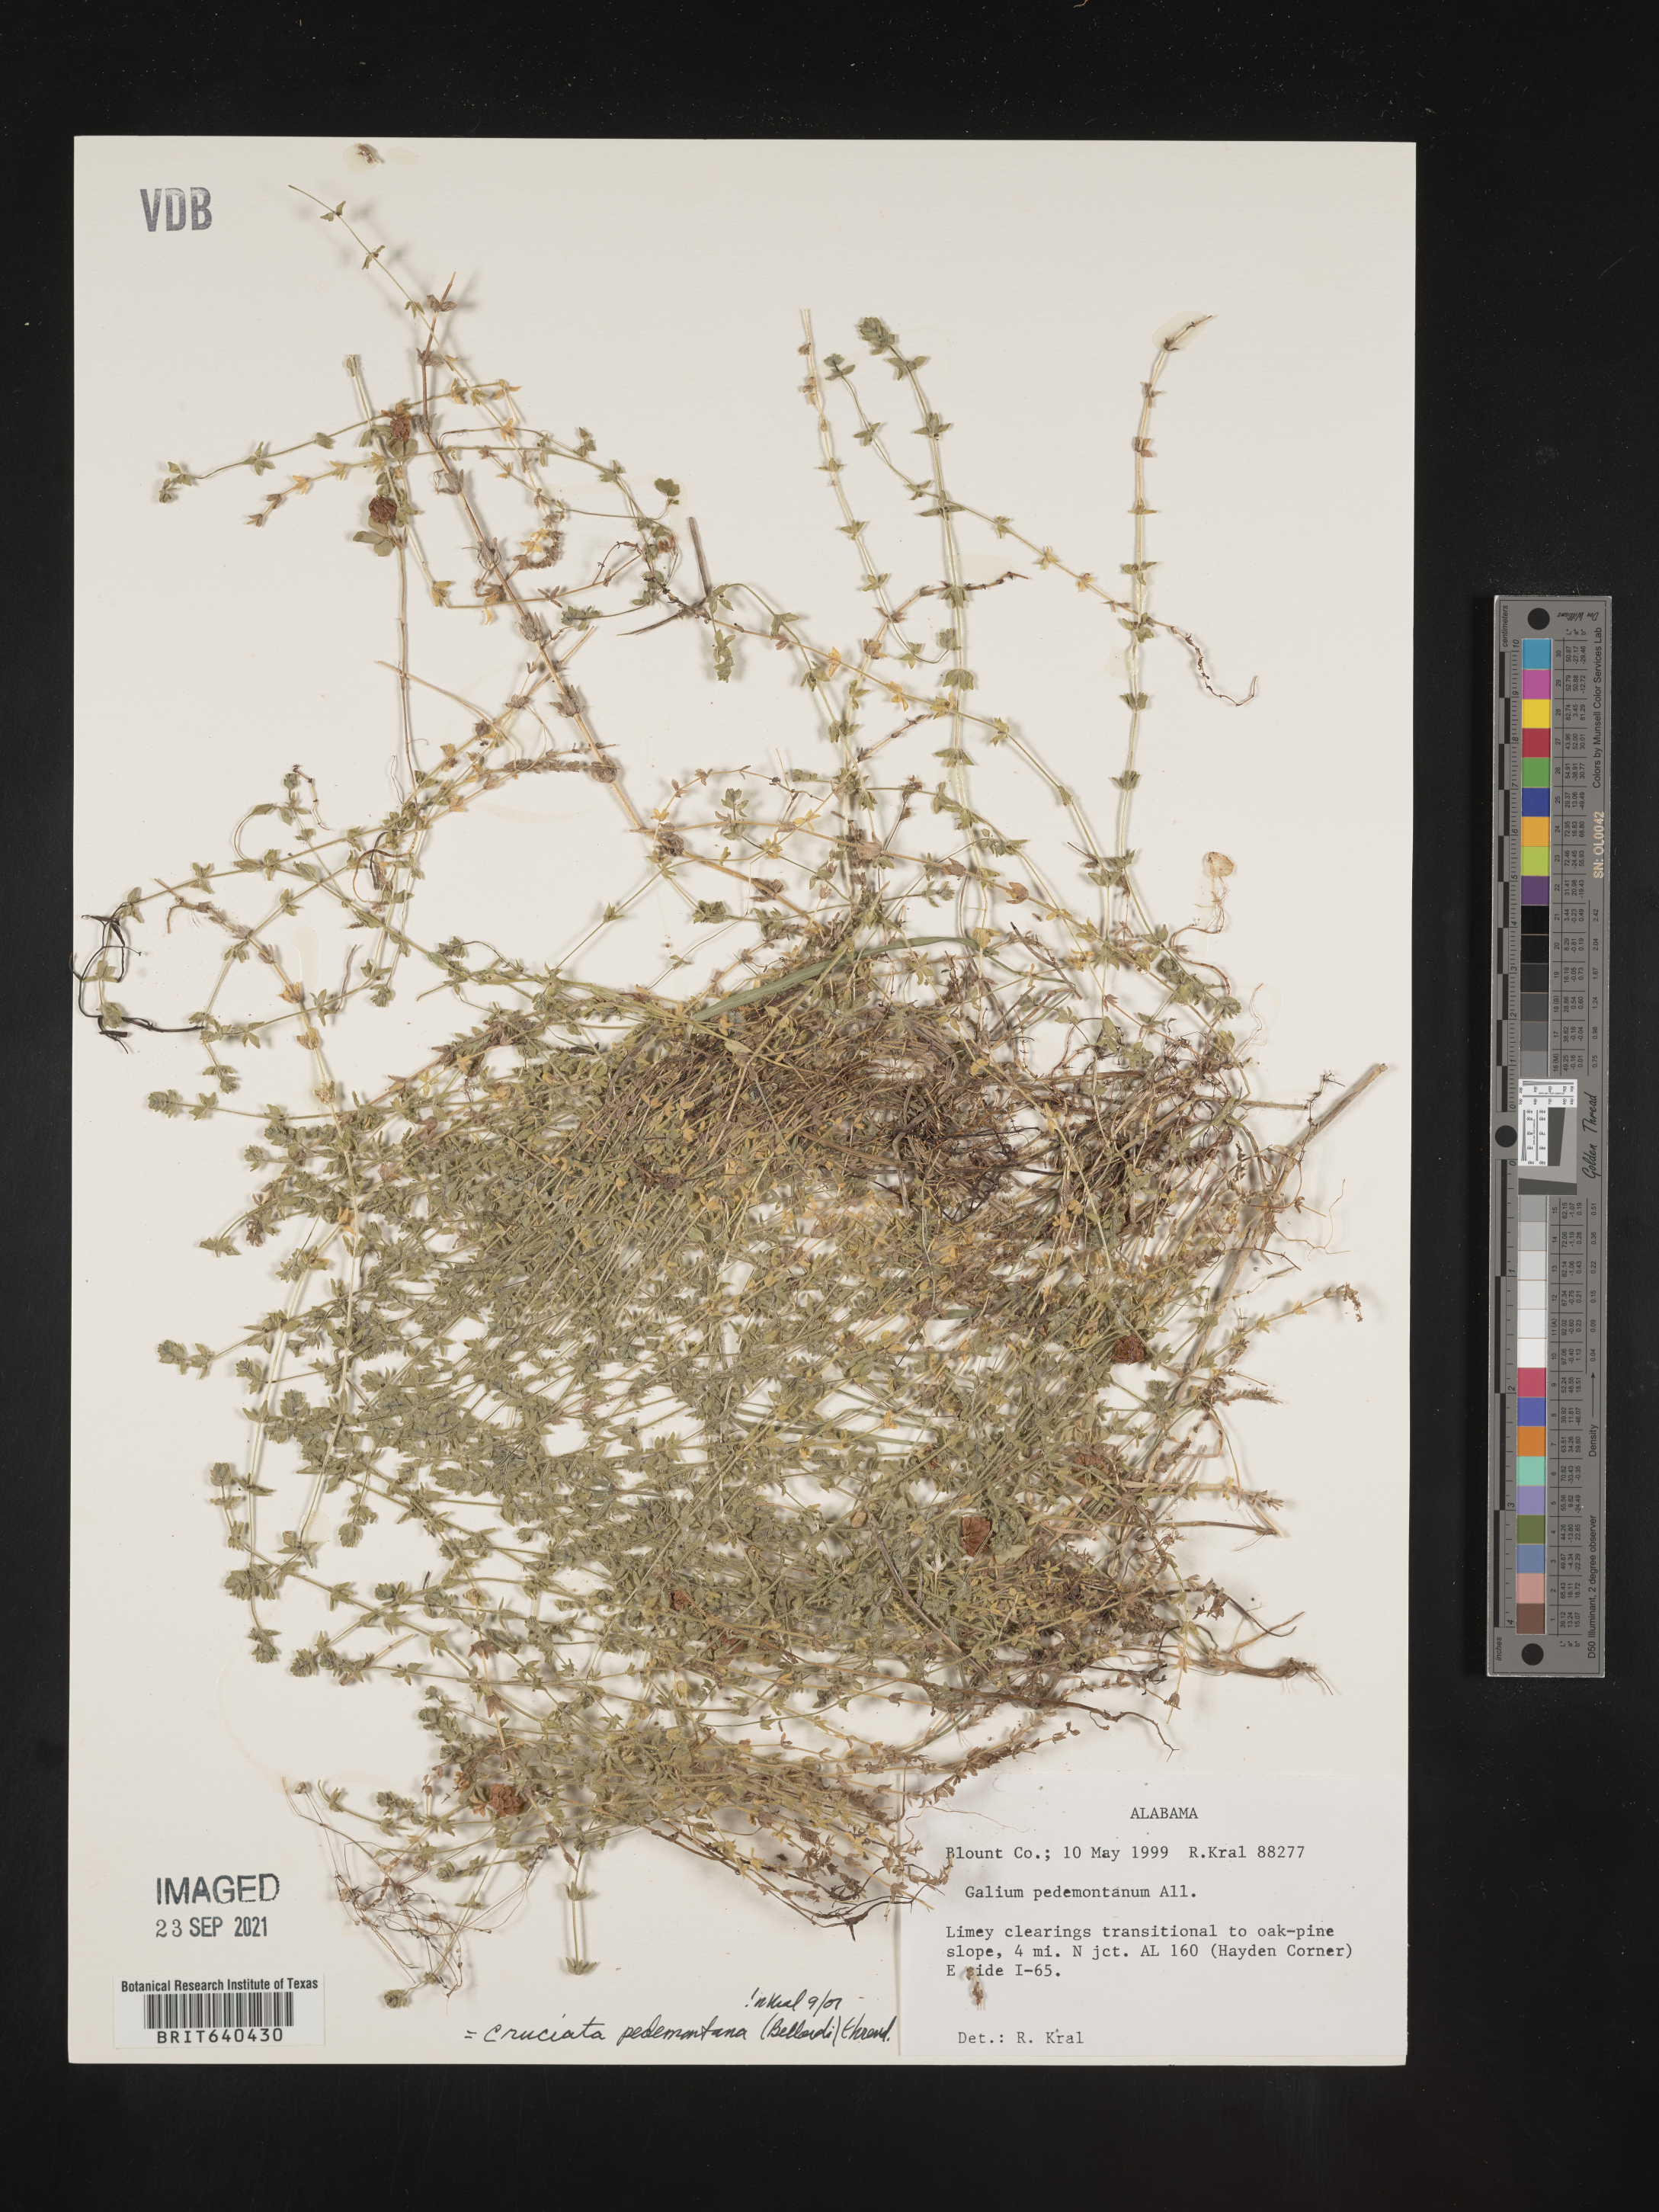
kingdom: Plantae
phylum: Tracheophyta
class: Magnoliopsida
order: Gentianales
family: Rubiaceae
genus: Cruciata
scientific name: Cruciata
